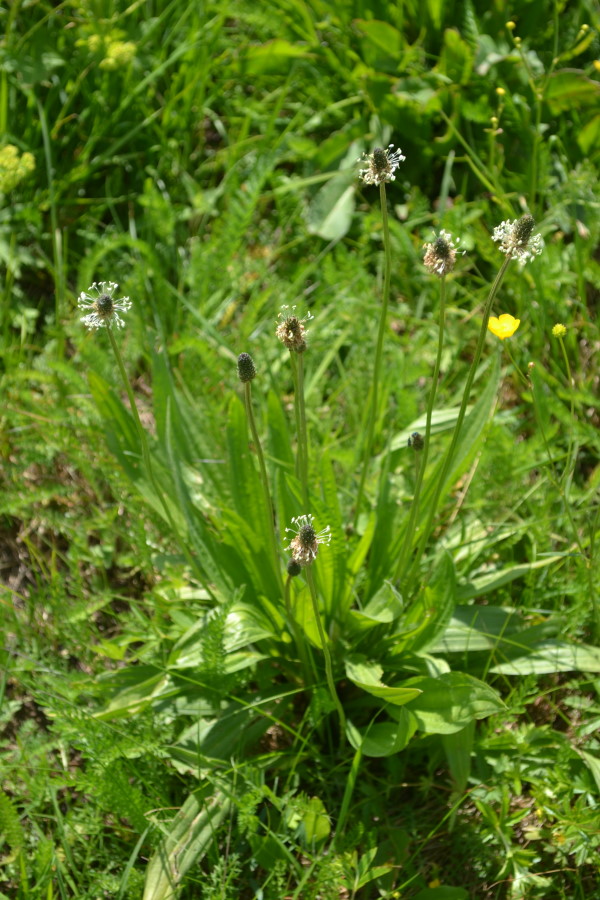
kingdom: Plantae
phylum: Tracheophyta
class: Magnoliopsida
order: Lamiales
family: Plantaginaceae
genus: Plantago
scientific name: Plantago lanceolata
